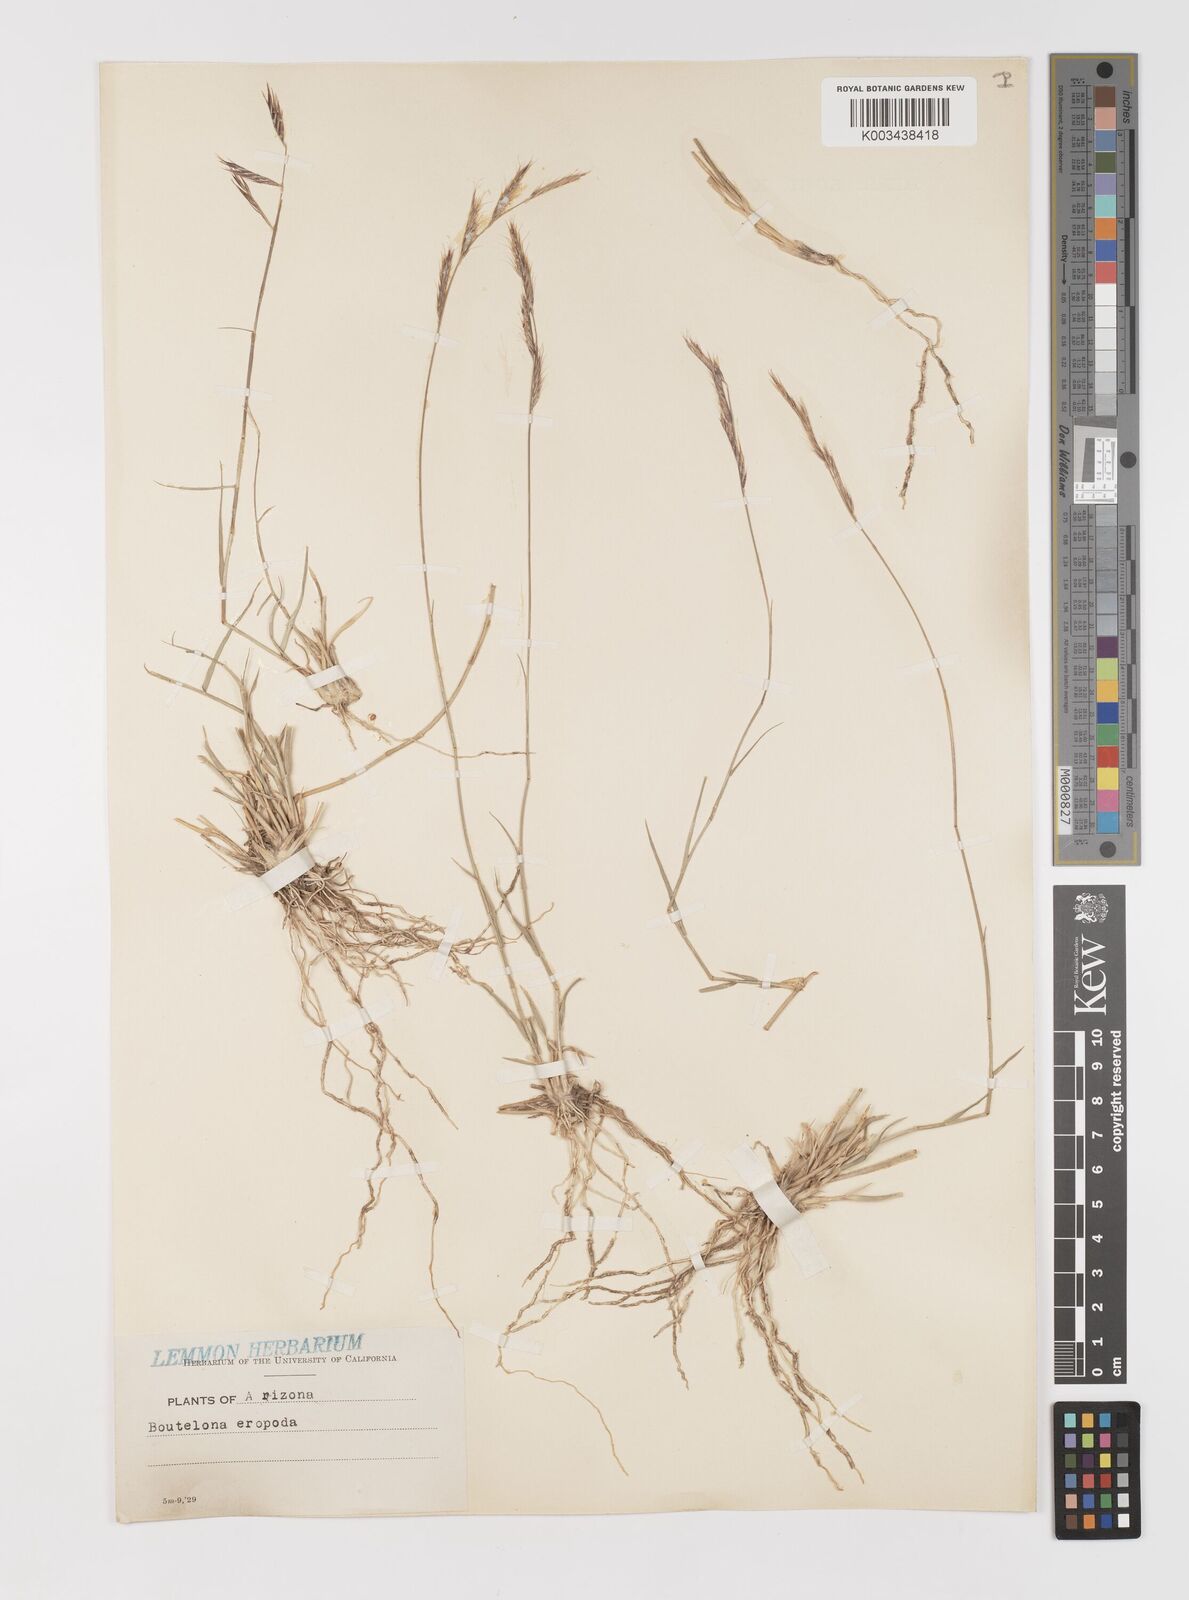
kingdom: Plantae
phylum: Tracheophyta
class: Liliopsida
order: Poales
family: Poaceae
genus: Bouteloua
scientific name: Bouteloua eriopoda
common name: Woolly foot grama
